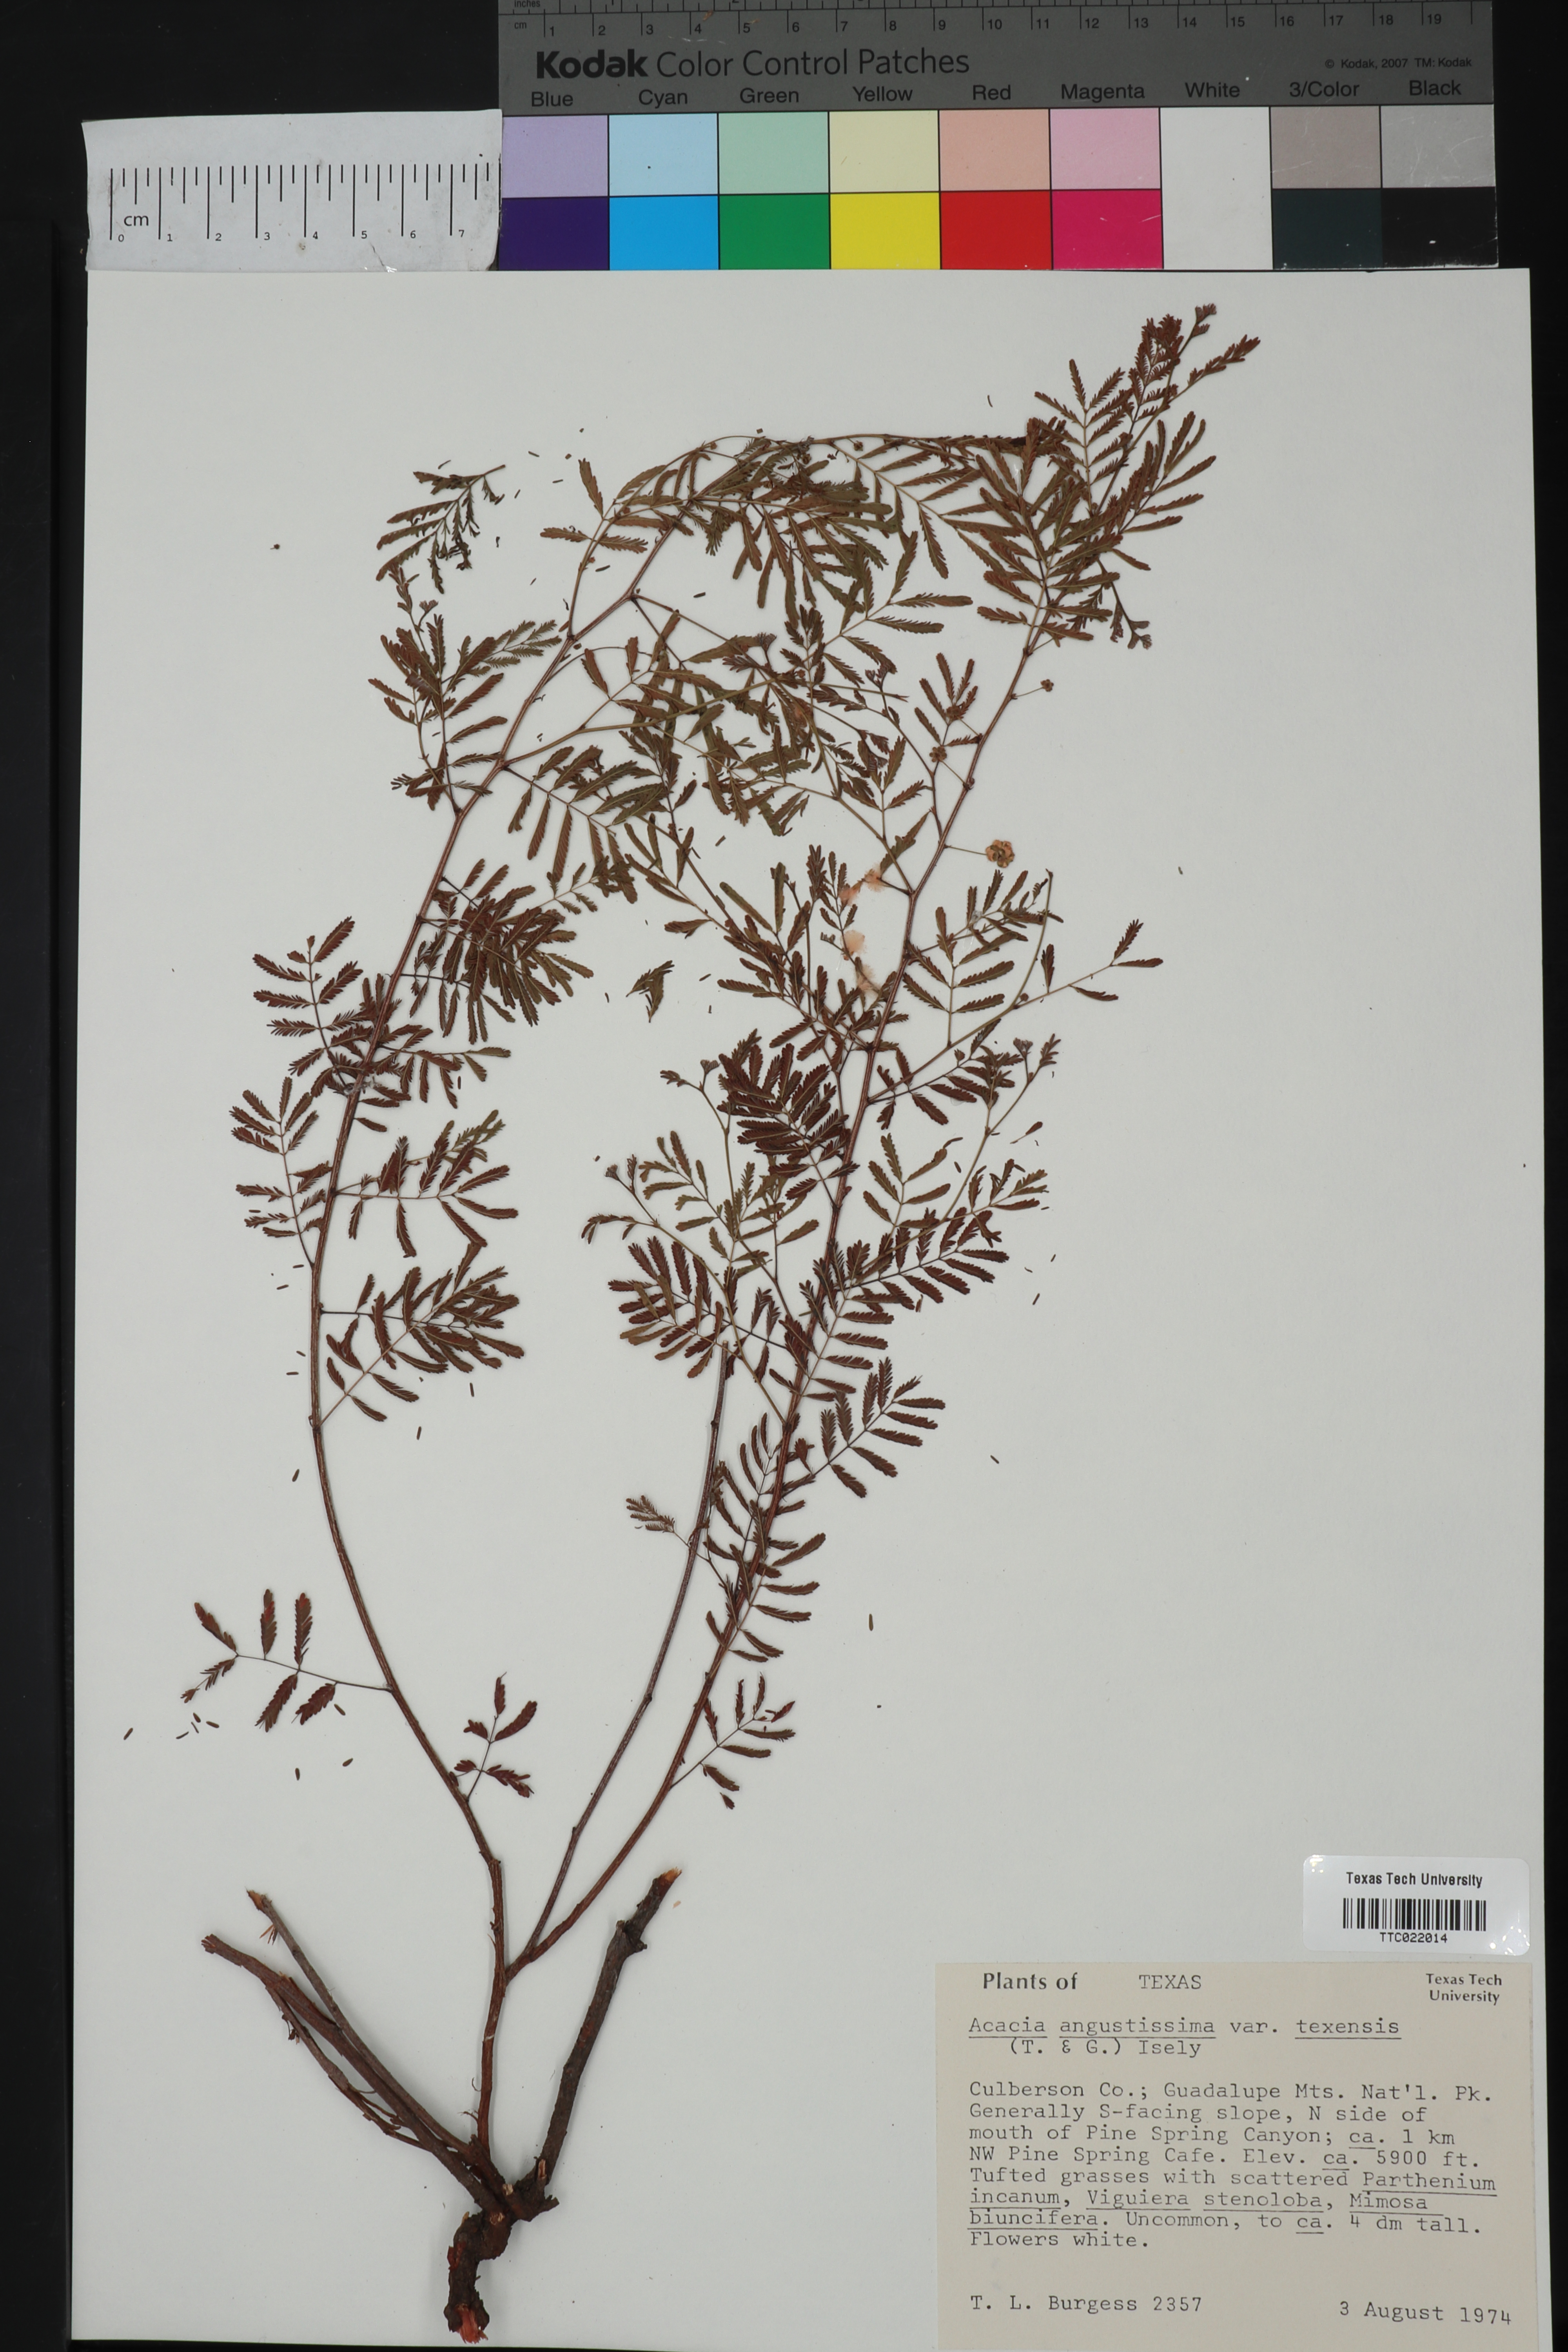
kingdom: Plantae
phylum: Tracheophyta
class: Magnoliopsida
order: Fabales
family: Fabaceae
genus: Acaciella
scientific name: Acaciella angustissima
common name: Prairie acacia
